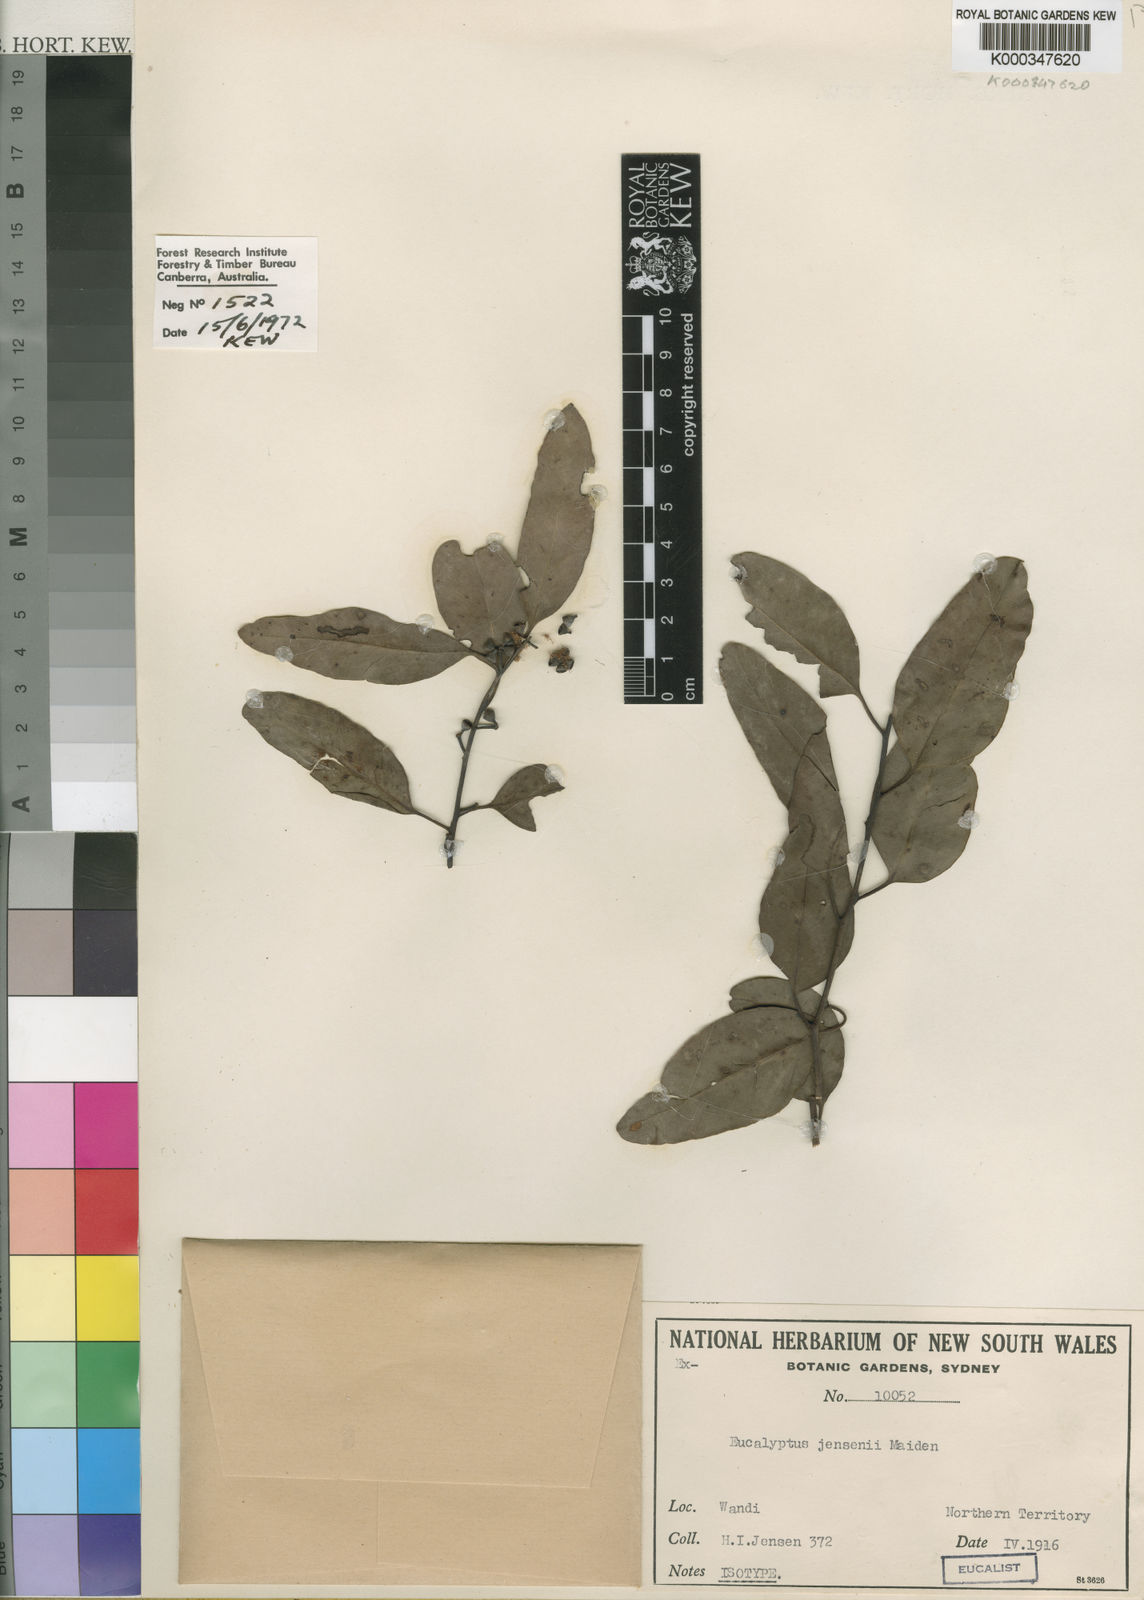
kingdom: Plantae
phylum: Tracheophyta
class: Magnoliopsida
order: Myrtales
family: Myrtaceae
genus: Eucalyptus
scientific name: Eucalyptus jensenii
